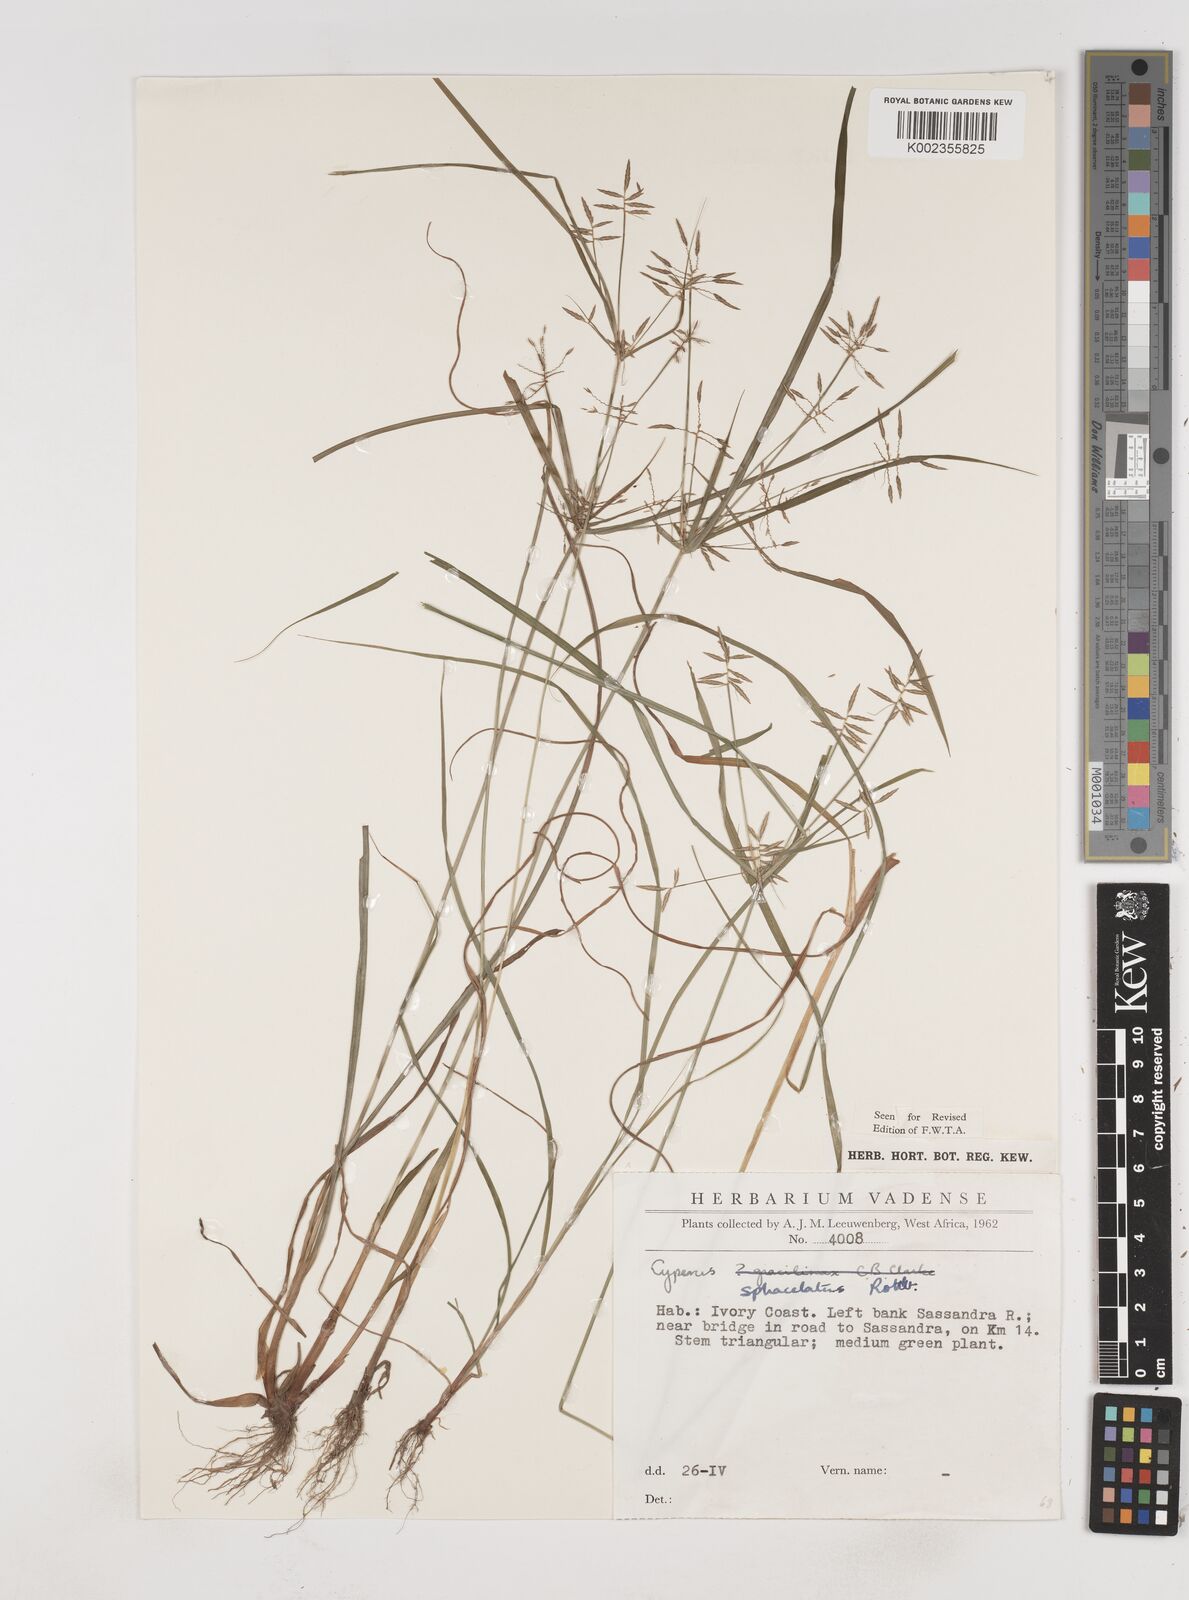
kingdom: Plantae
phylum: Tracheophyta
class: Liliopsida
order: Poales
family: Cyperaceae
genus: Cyperus
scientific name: Cyperus sphacelatus
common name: Roadside flatsedge
